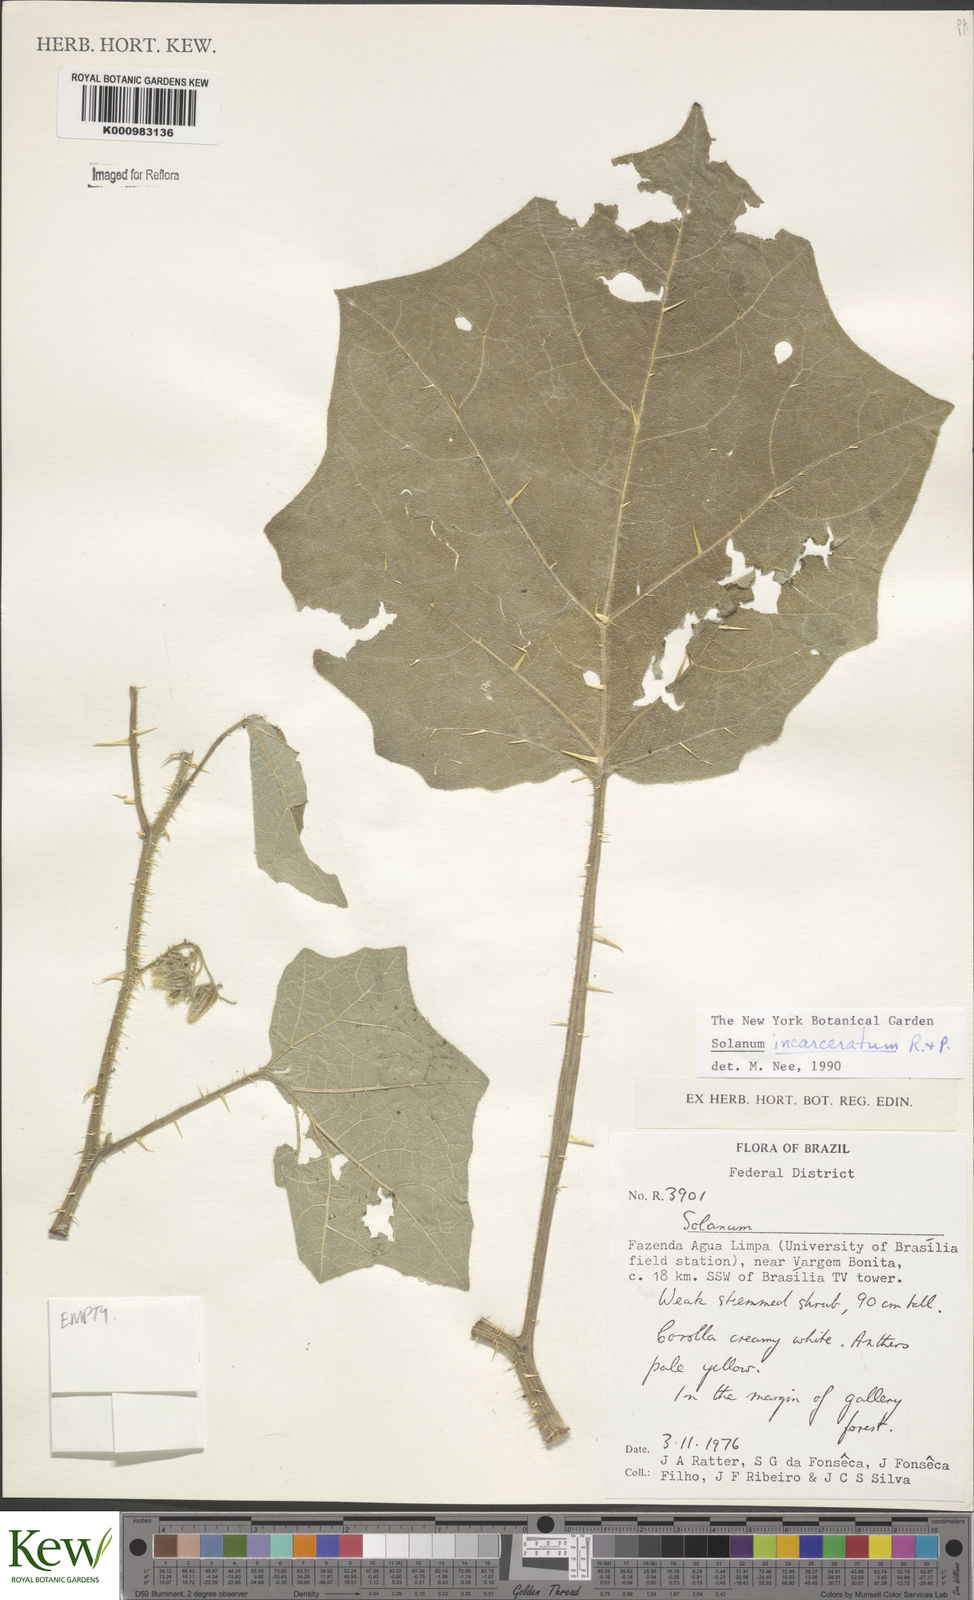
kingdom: Plantae
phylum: Tracheophyta
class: Magnoliopsida
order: Solanales
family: Solanaceae
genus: Solanum
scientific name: Solanum incarceratum
